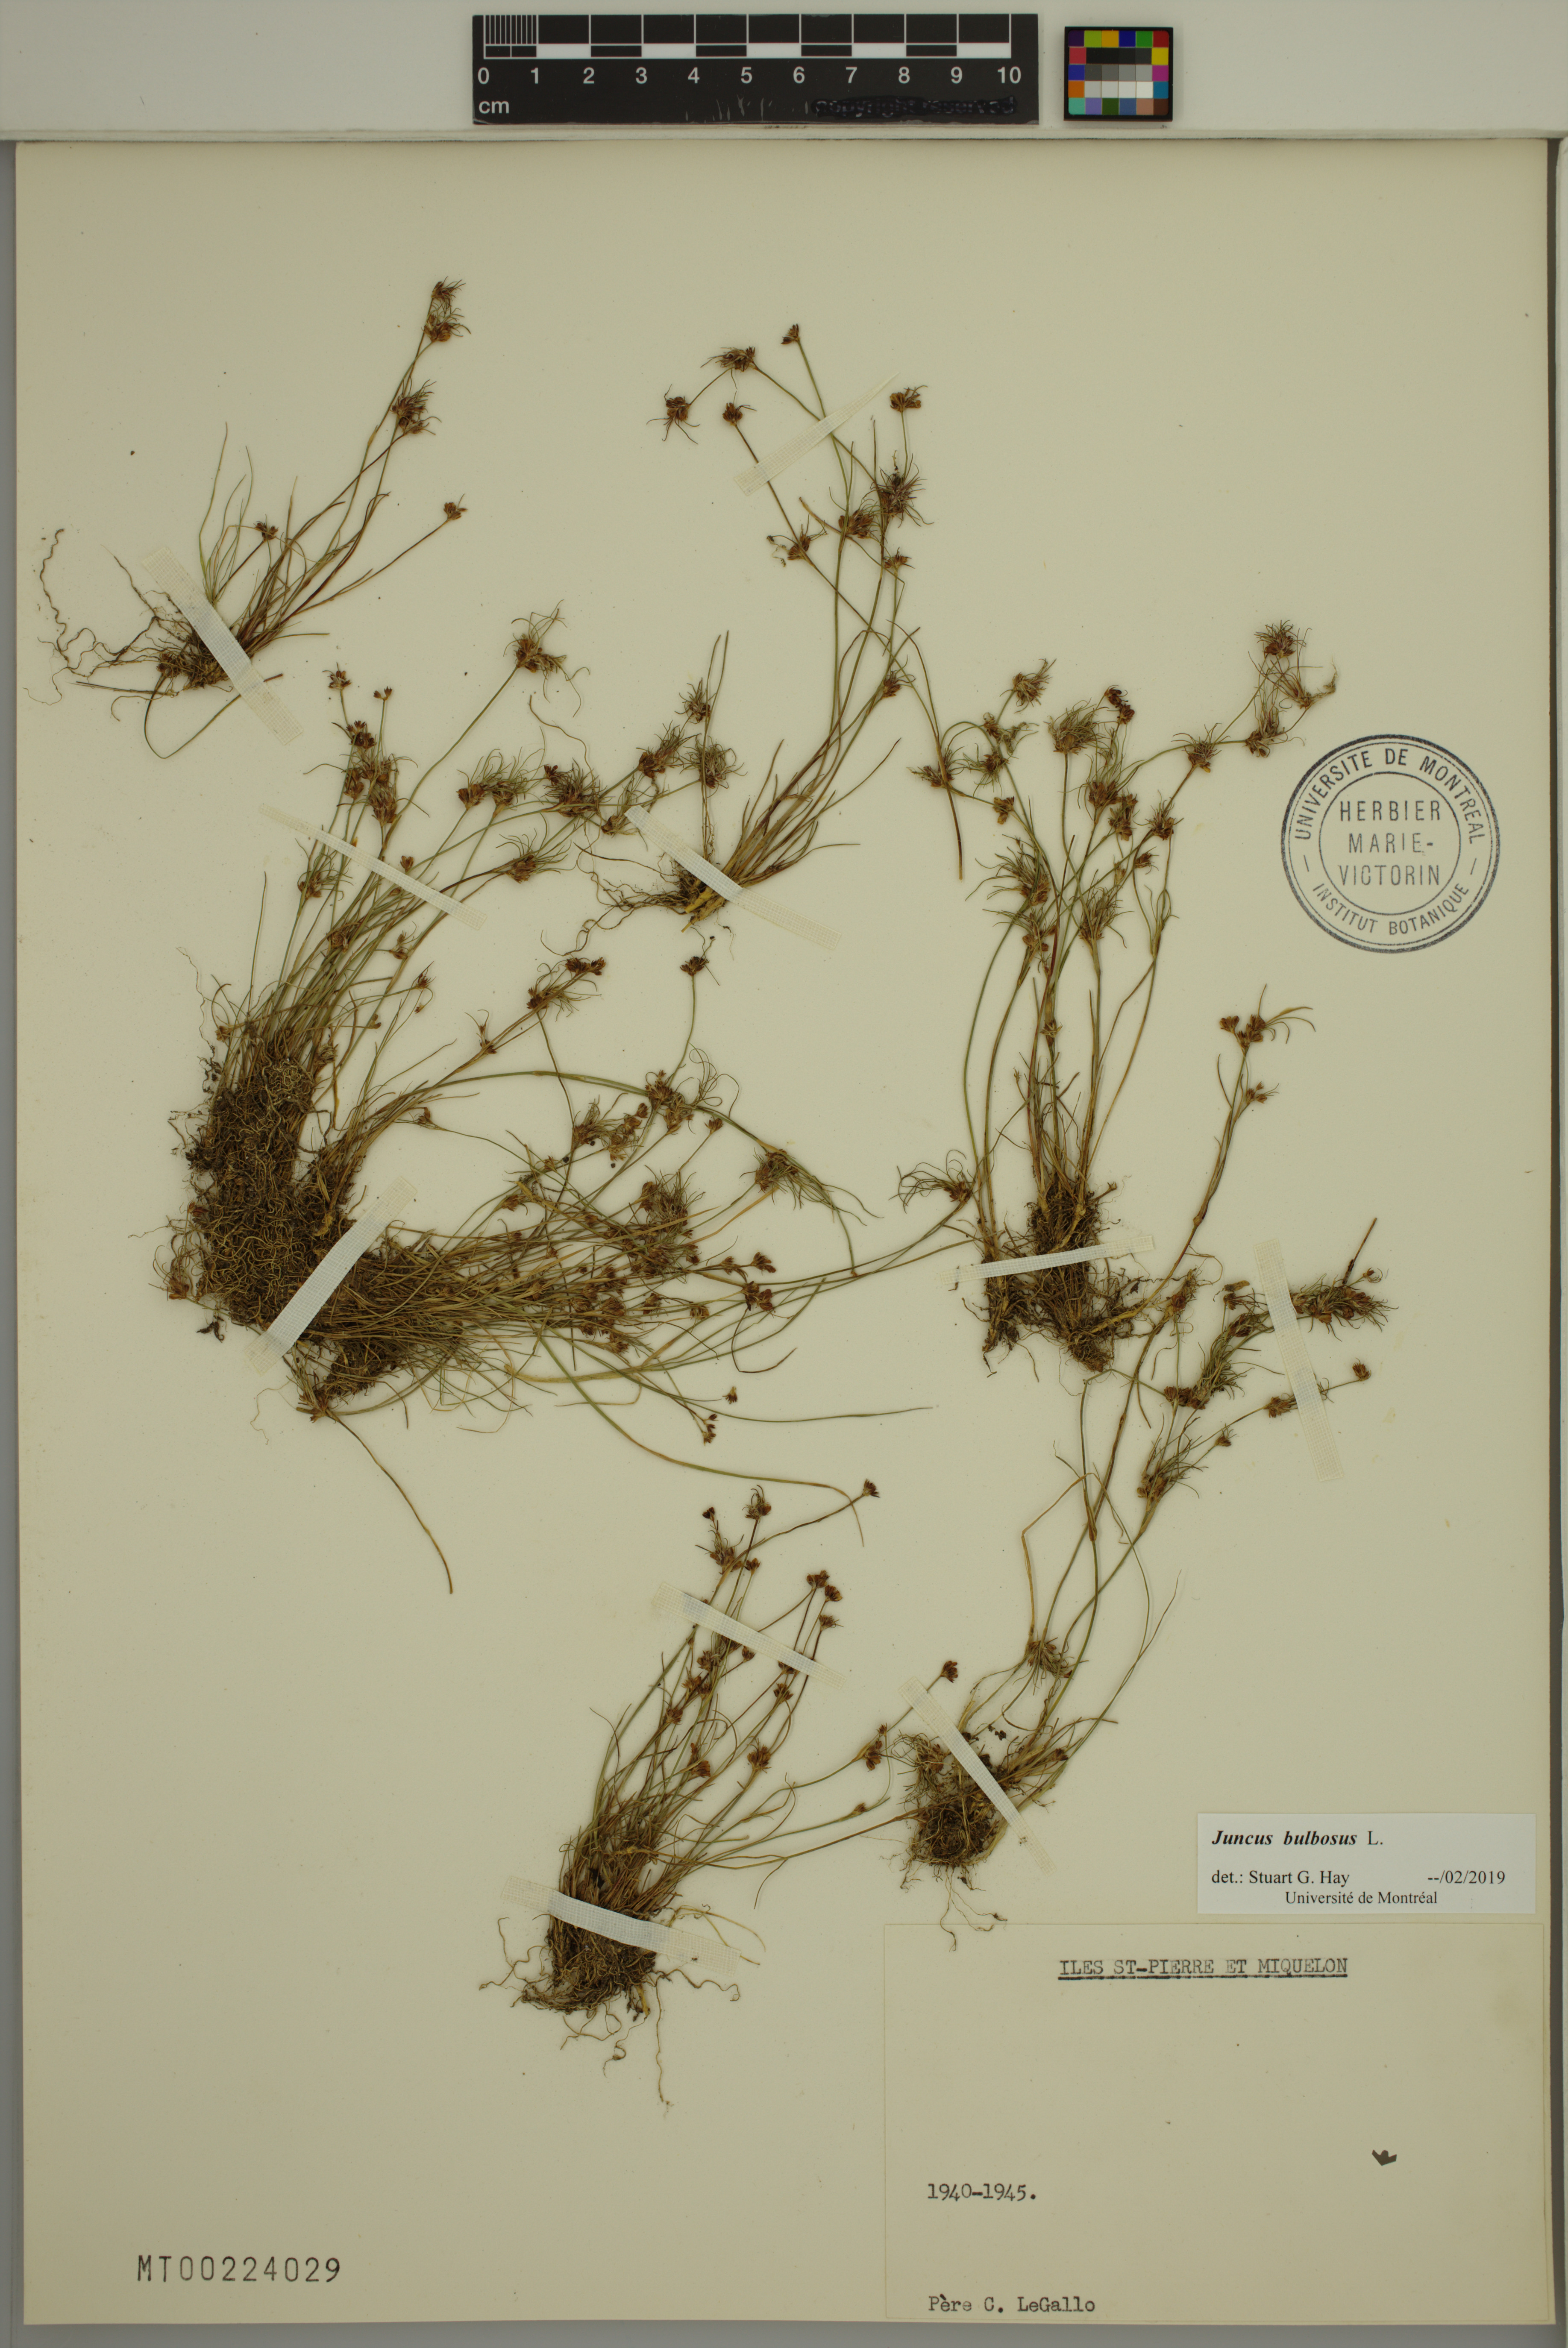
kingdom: Plantae
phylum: Tracheophyta
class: Liliopsida
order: Poales
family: Juncaceae
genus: Juncus
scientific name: Juncus bulbosus
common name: Bulbous rush
